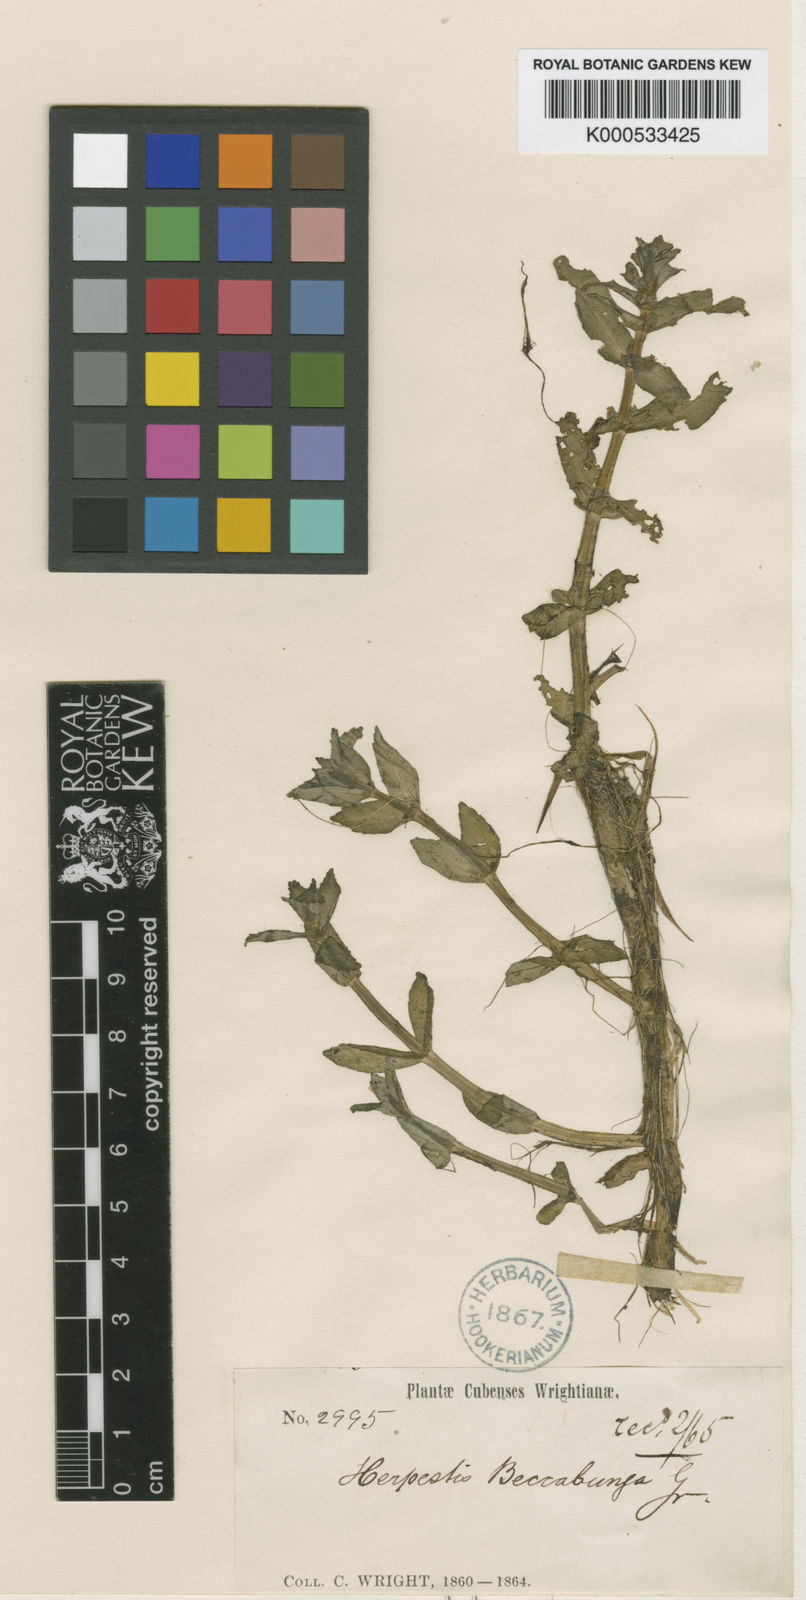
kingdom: Plantae
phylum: Tracheophyta
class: Magnoliopsida
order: Lamiales
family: Plantaginaceae
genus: Bacopa
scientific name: Bacopa beccabunga
